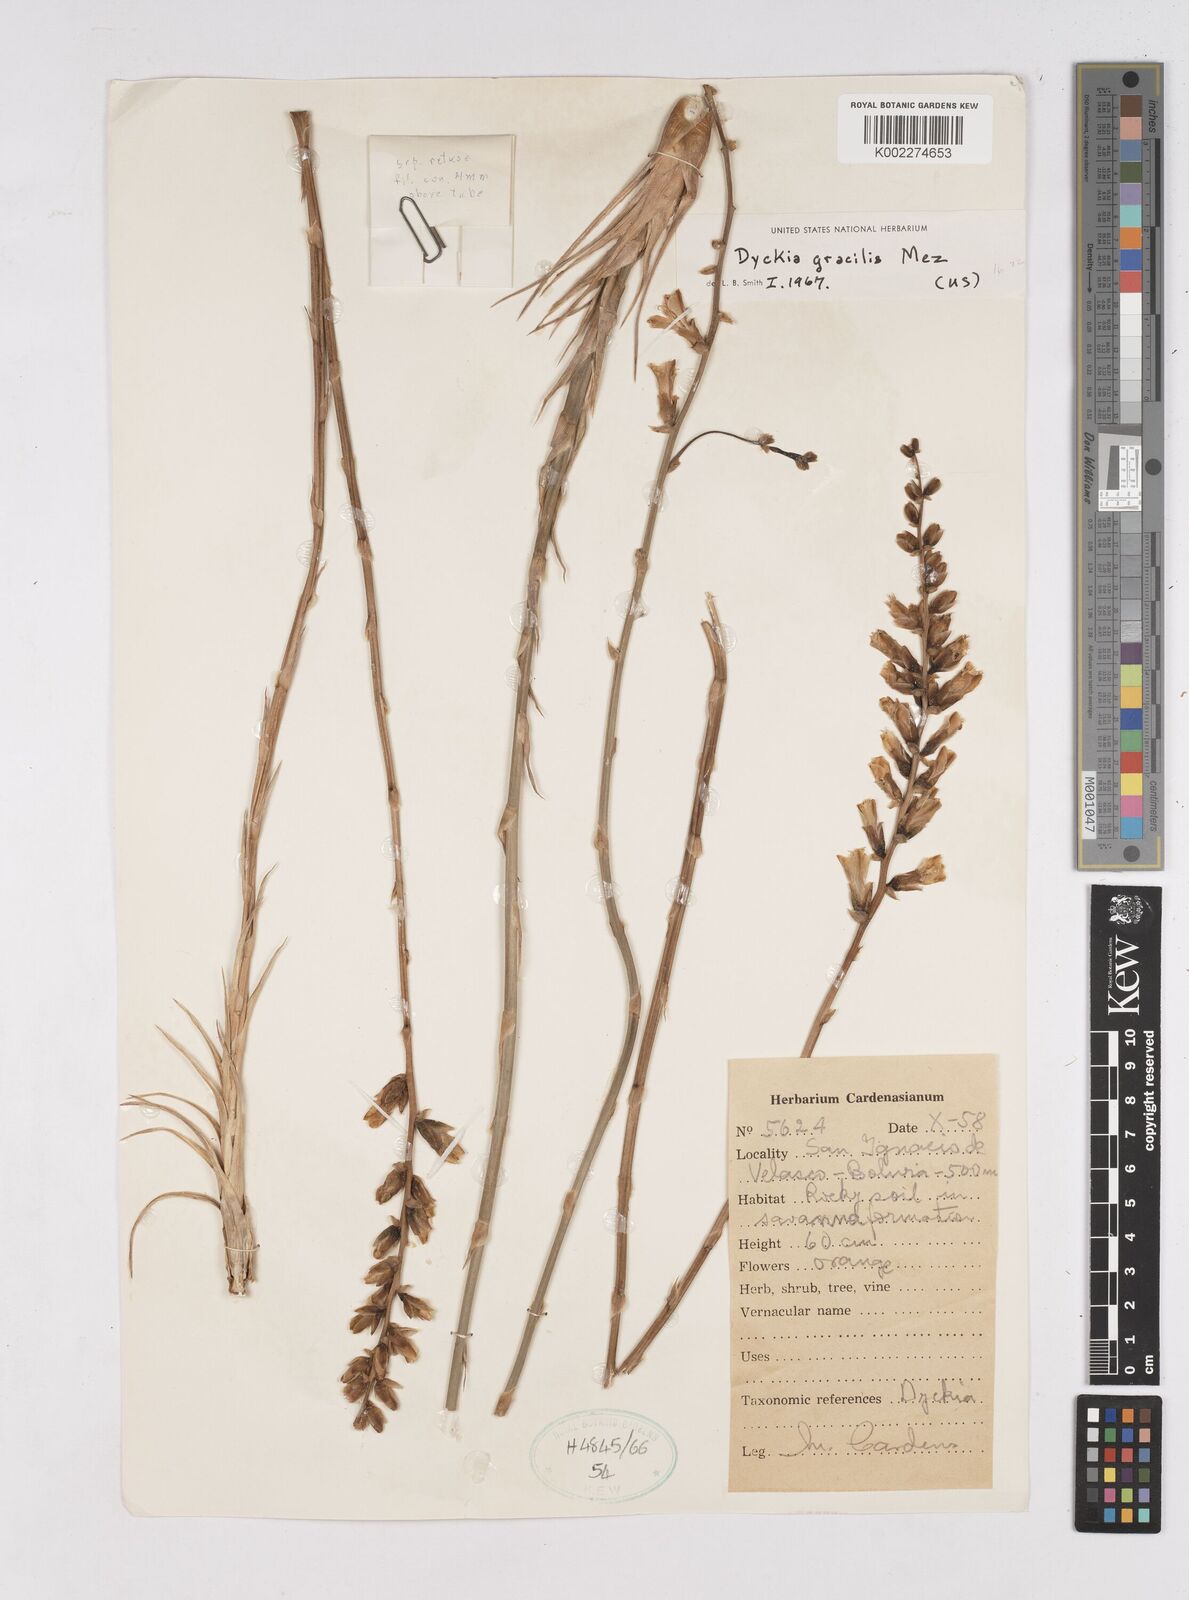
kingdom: Plantae
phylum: Tracheophyta
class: Liliopsida
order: Poales
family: Bromeliaceae
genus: Dyckia
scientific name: Dyckia gracilis
